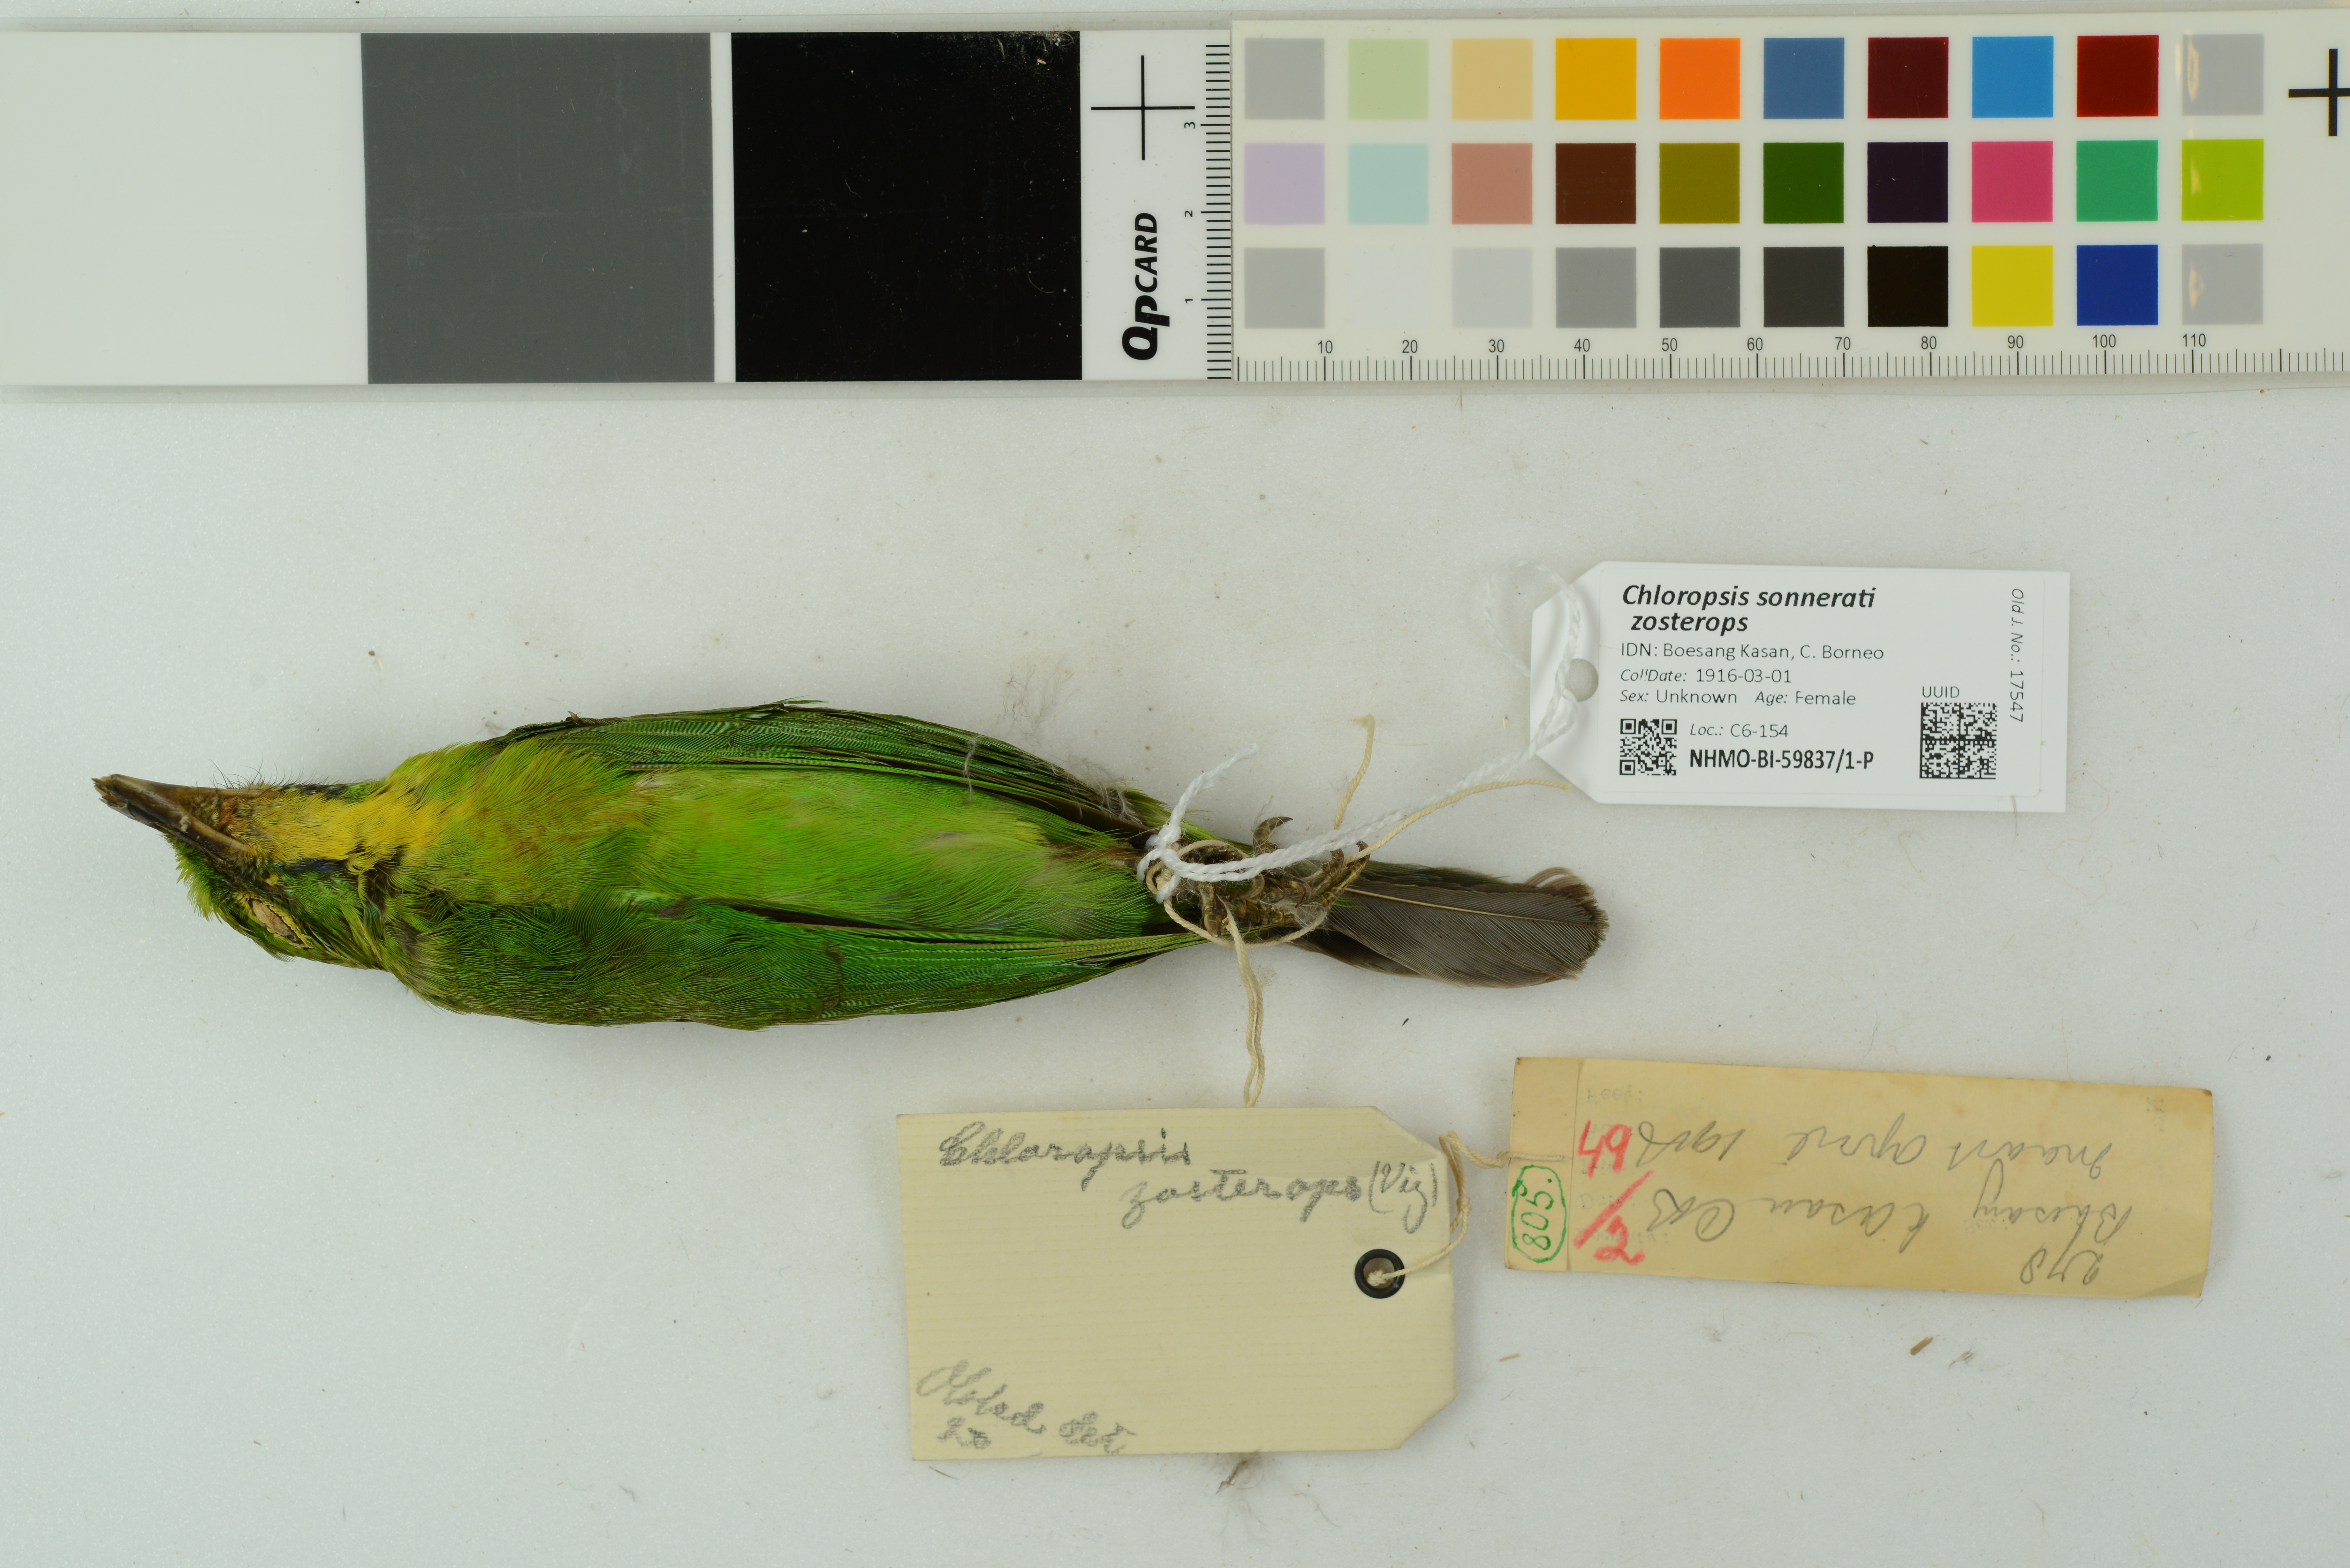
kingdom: Animalia
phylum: Chordata
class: Aves
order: Passeriformes
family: Chloropseidae
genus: Chloropsis
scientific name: Chloropsis sonnerati
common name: Greater green leafbird
